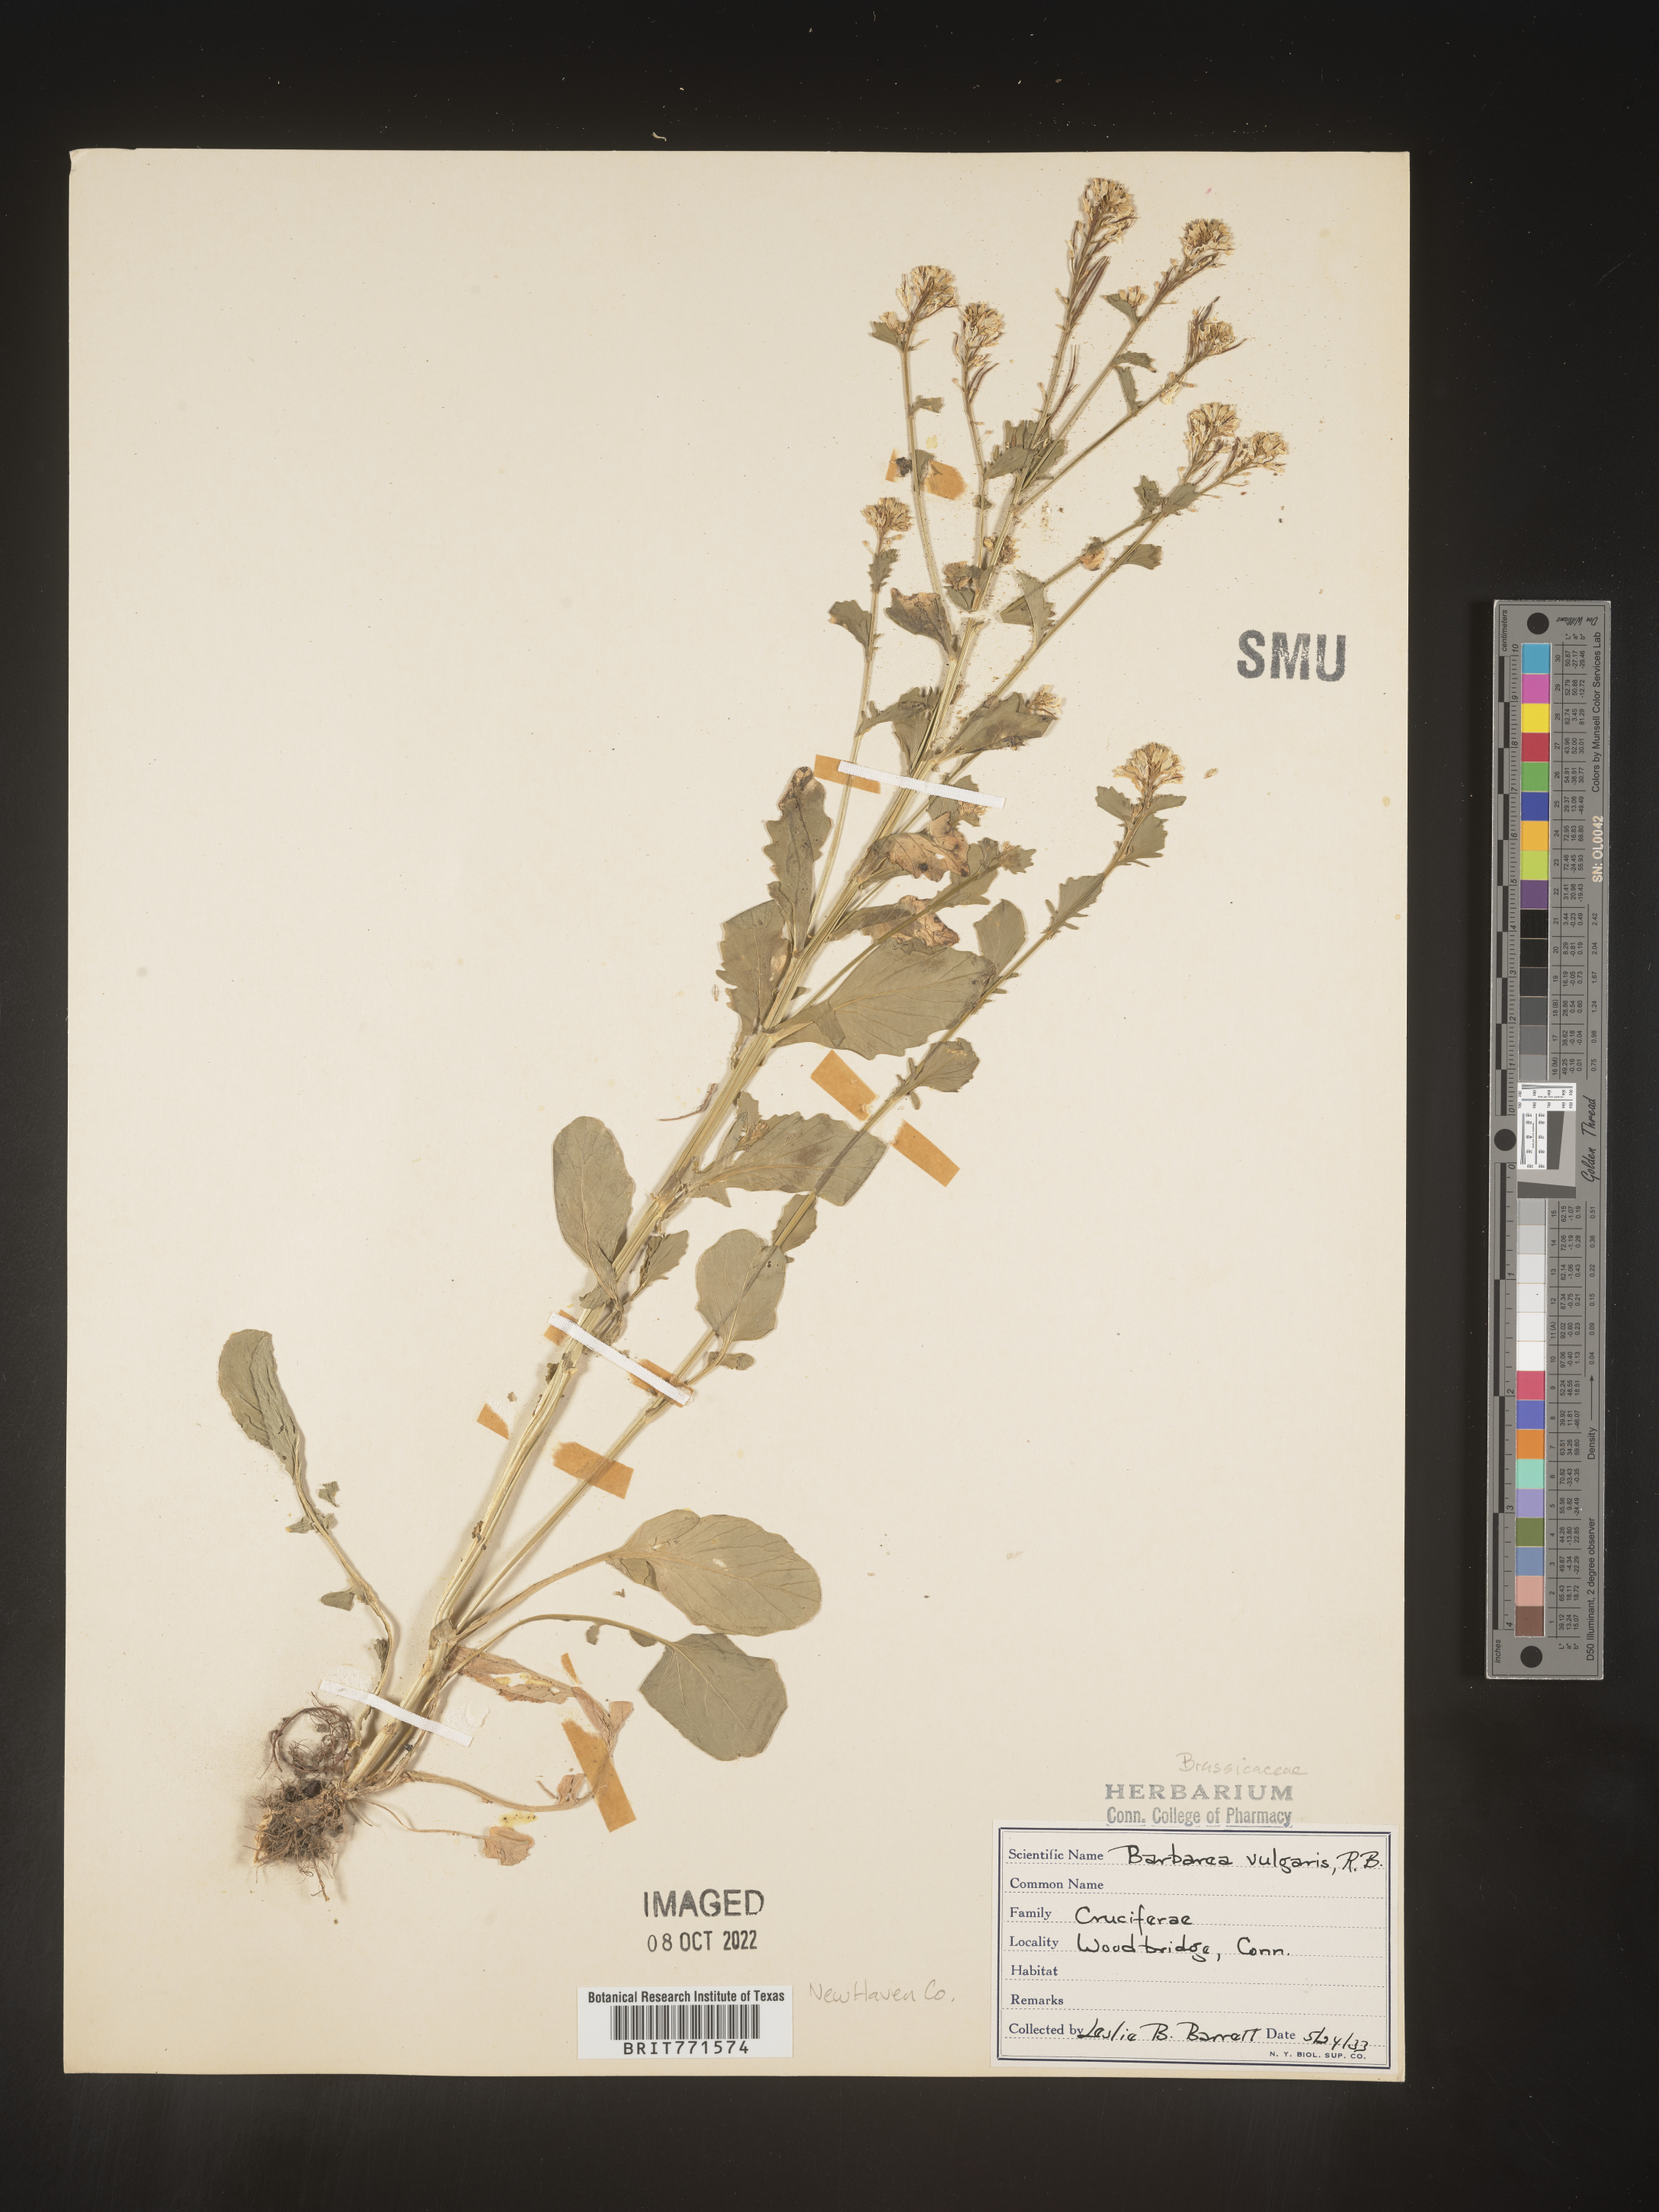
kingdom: Plantae
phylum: Tracheophyta
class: Magnoliopsida
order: Brassicales
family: Brassicaceae
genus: Barbarea
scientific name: Barbarea vulgaris
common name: Cressy-greens
